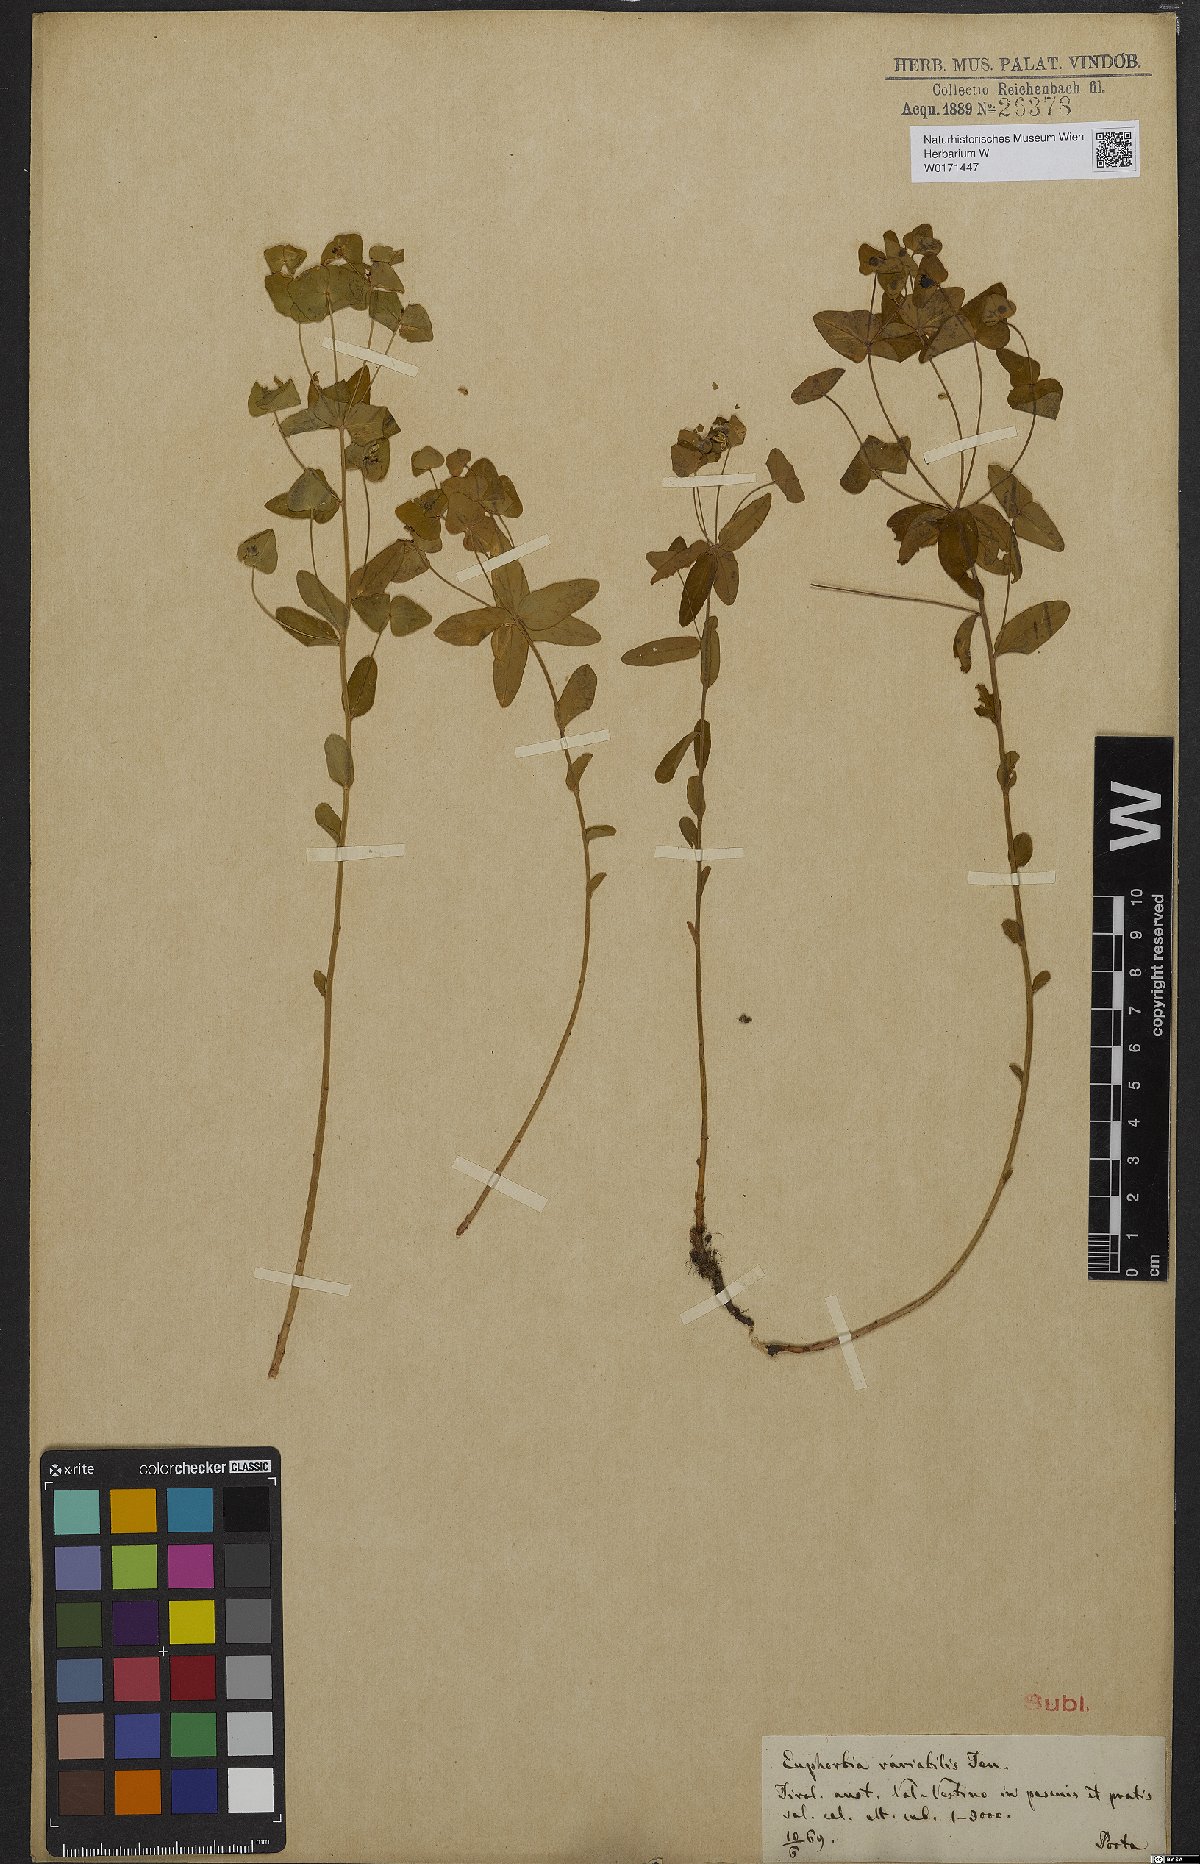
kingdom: Plantae
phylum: Tracheophyta
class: Magnoliopsida
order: Malpighiales
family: Euphorbiaceae
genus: Euphorbia
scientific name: Euphorbia variabilis
